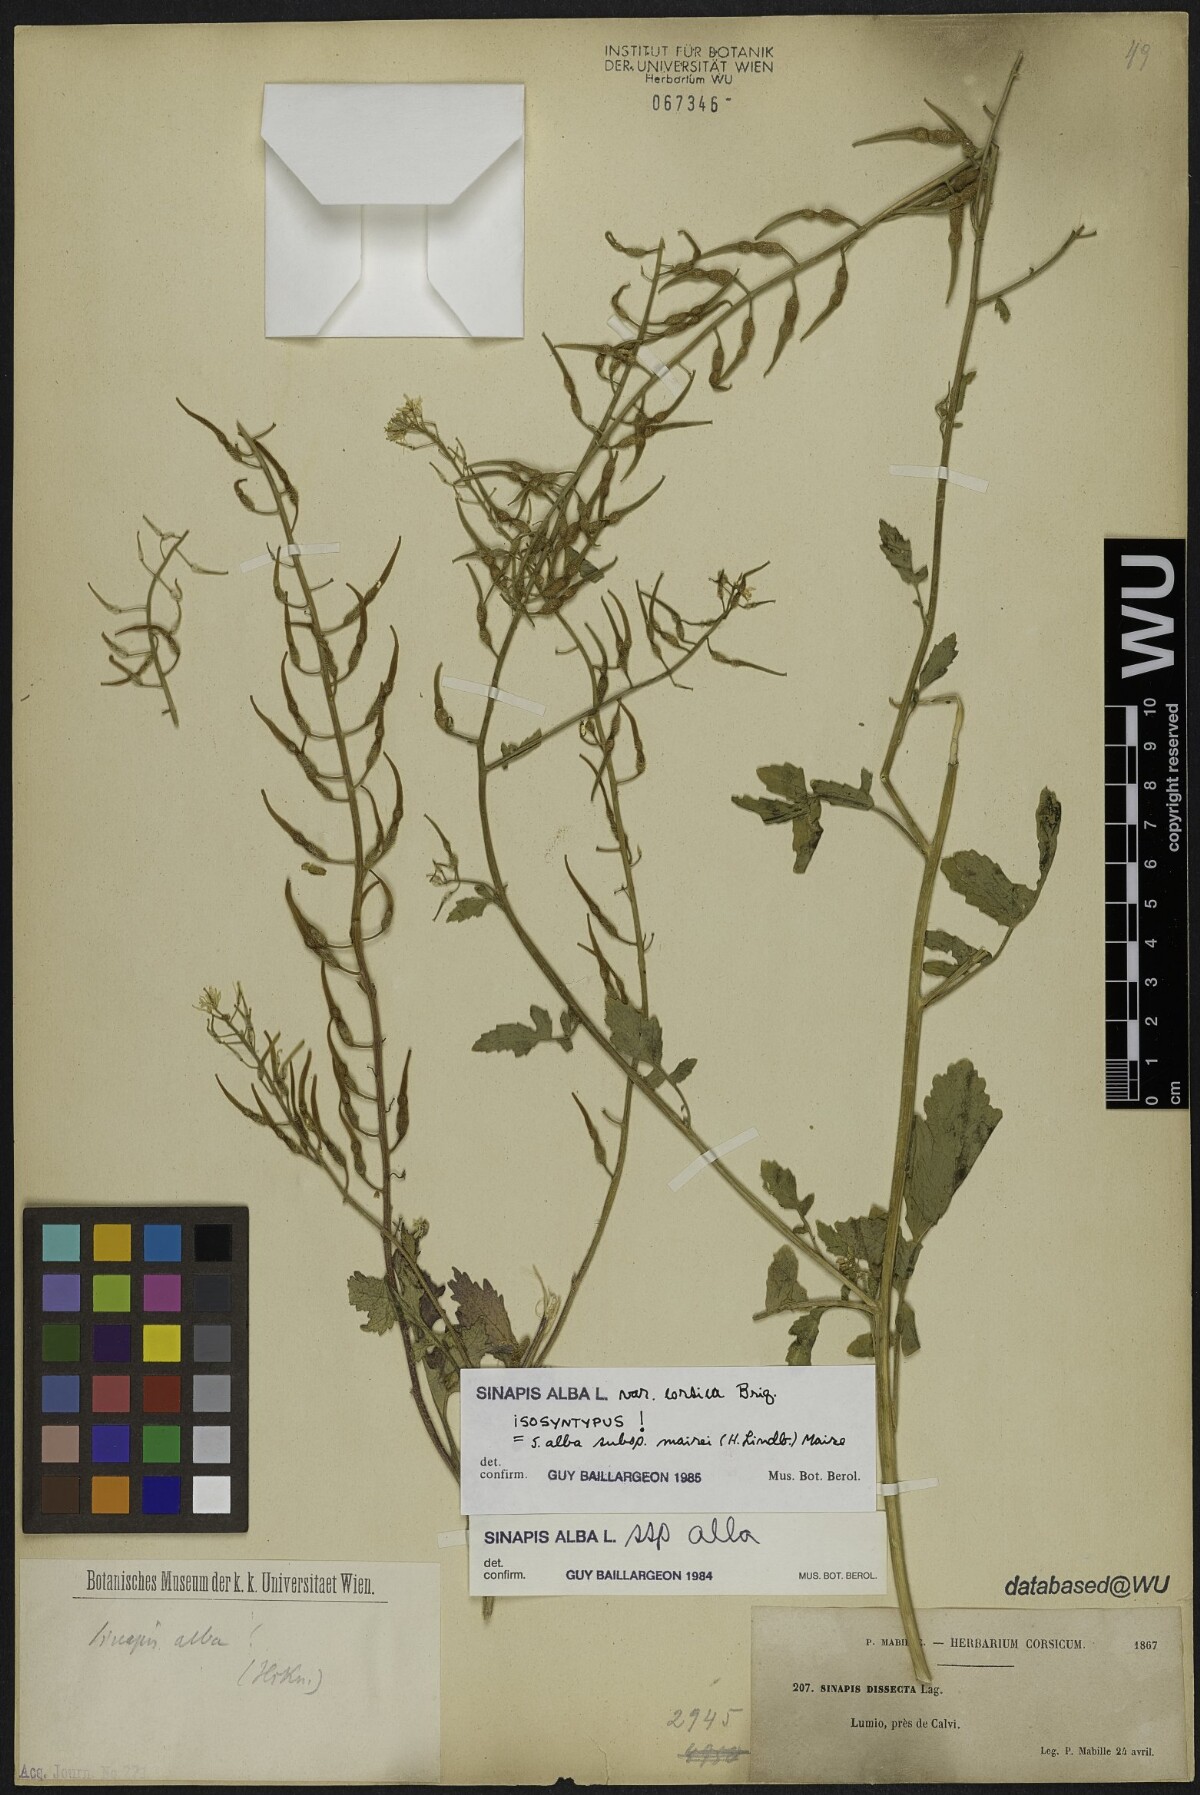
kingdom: Plantae
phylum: Tracheophyta
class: Magnoliopsida
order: Brassicales
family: Brassicaceae
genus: Sinapis
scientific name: Sinapis alba
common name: White mustard
